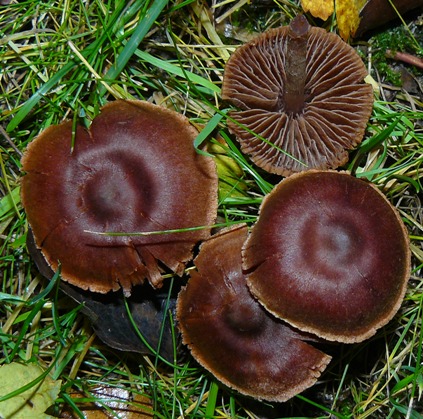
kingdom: Fungi
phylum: Basidiomycota
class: Agaricomycetes
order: Agaricales
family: Cortinariaceae
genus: Cortinarius
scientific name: Cortinarius
